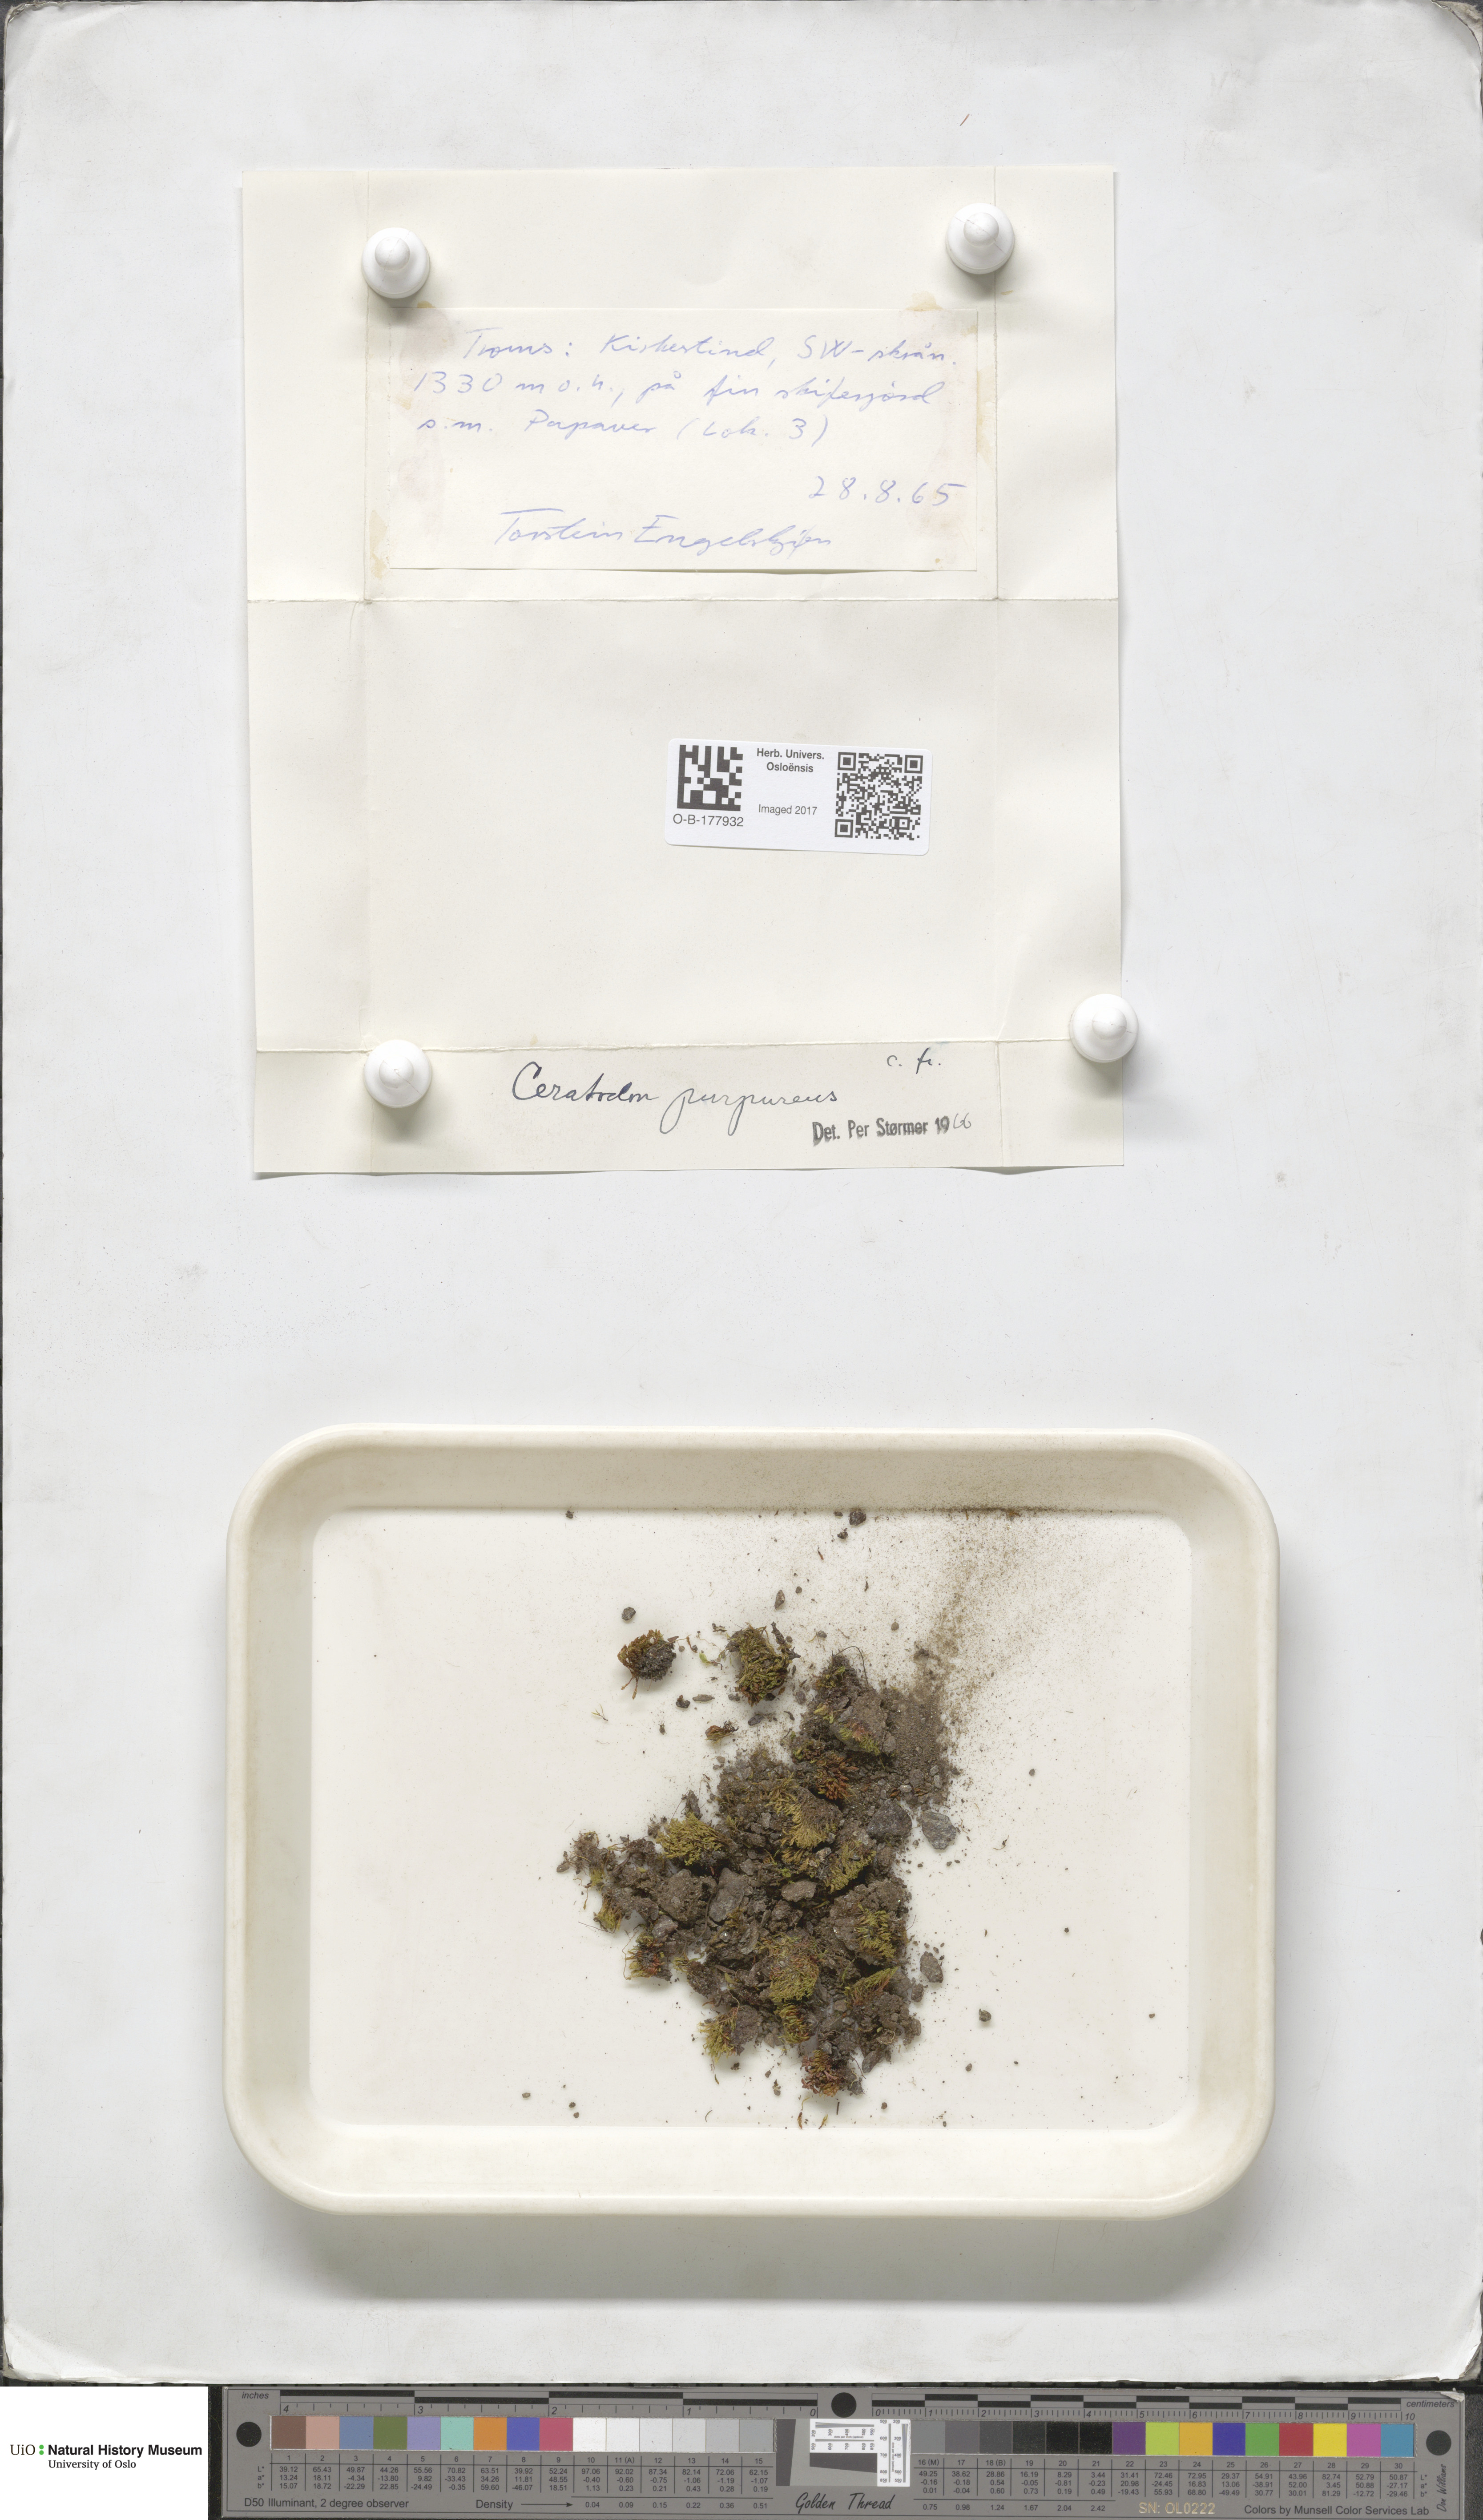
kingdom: Plantae
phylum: Bryophyta
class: Bryopsida
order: Dicranales
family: Ditrichaceae
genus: Ceratodon
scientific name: Ceratodon purpureus
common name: Redshank
